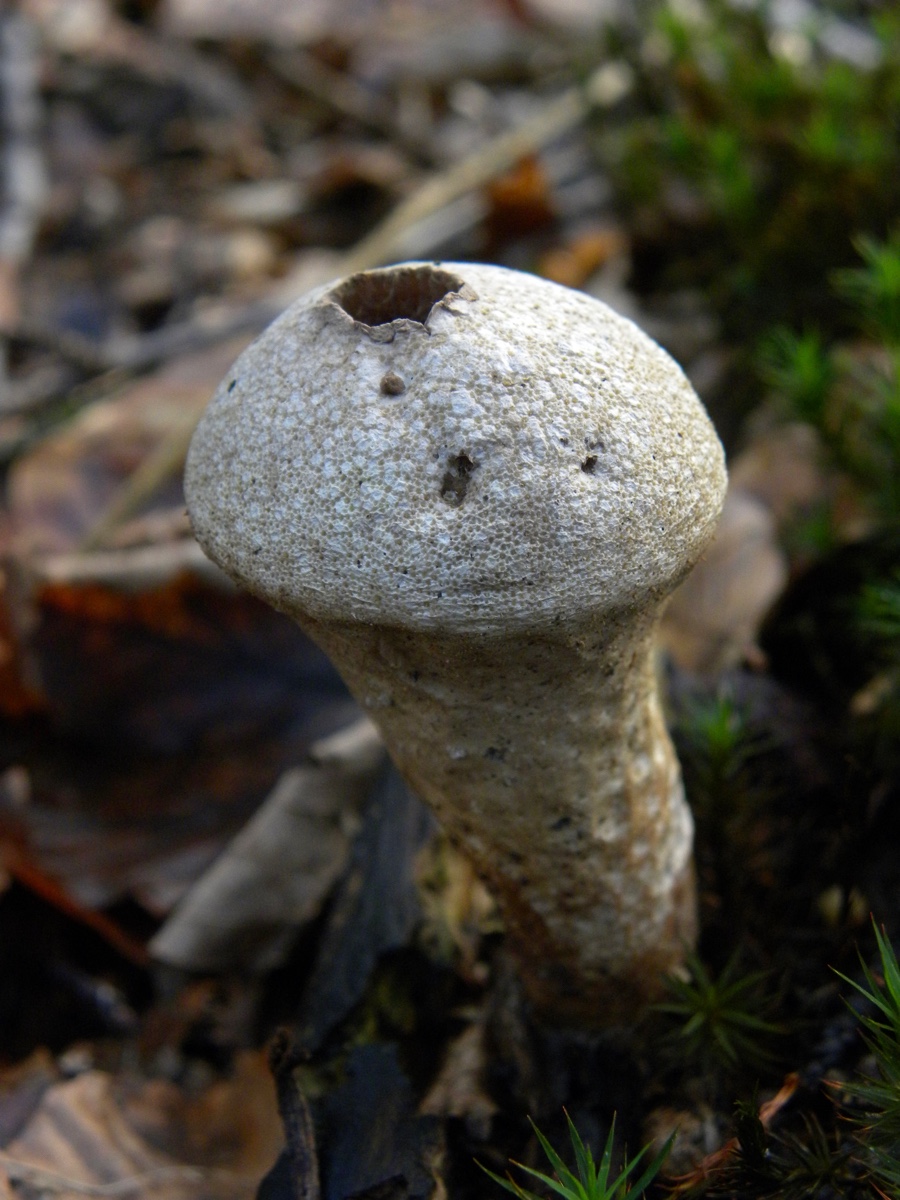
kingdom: Fungi
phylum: Basidiomycota
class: Agaricomycetes
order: Agaricales
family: Lycoperdaceae
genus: Lycoperdon
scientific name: Lycoperdon perlatum
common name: krystal-støvbold
